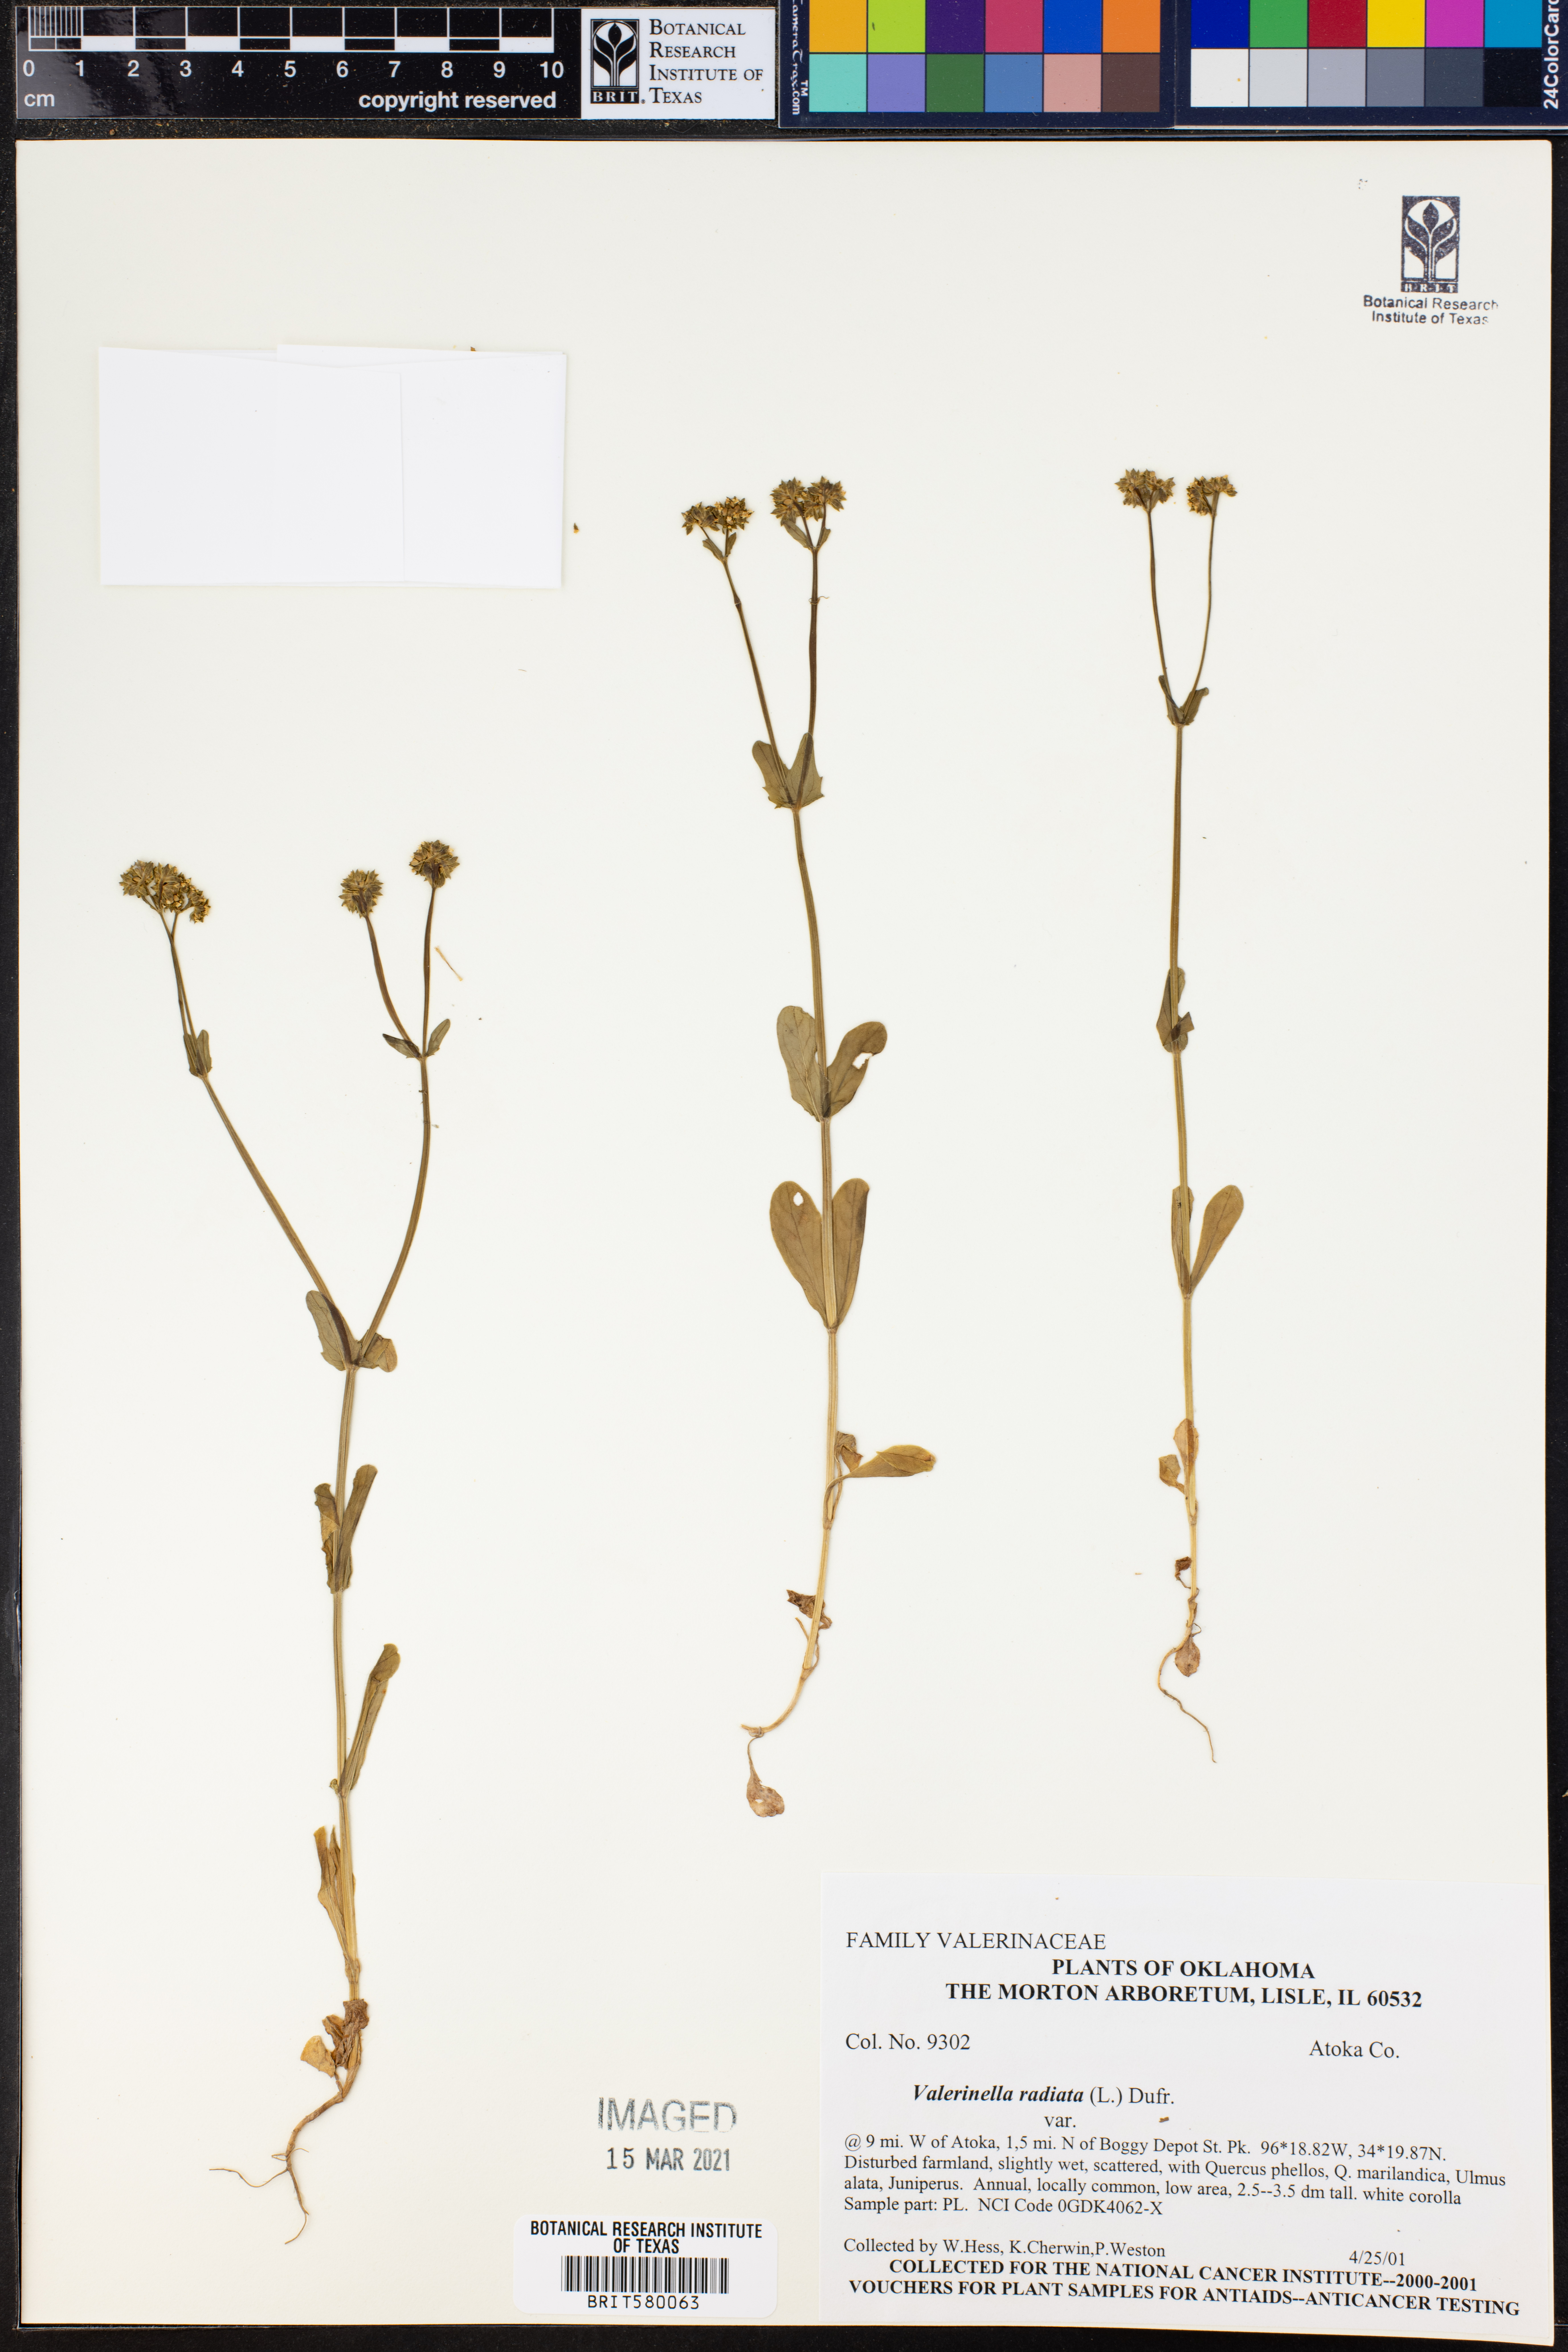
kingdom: Plantae
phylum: Tracheophyta
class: Magnoliopsida
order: Dipsacales
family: Caprifoliaceae
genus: Valerianella
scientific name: Valerianella radiata
